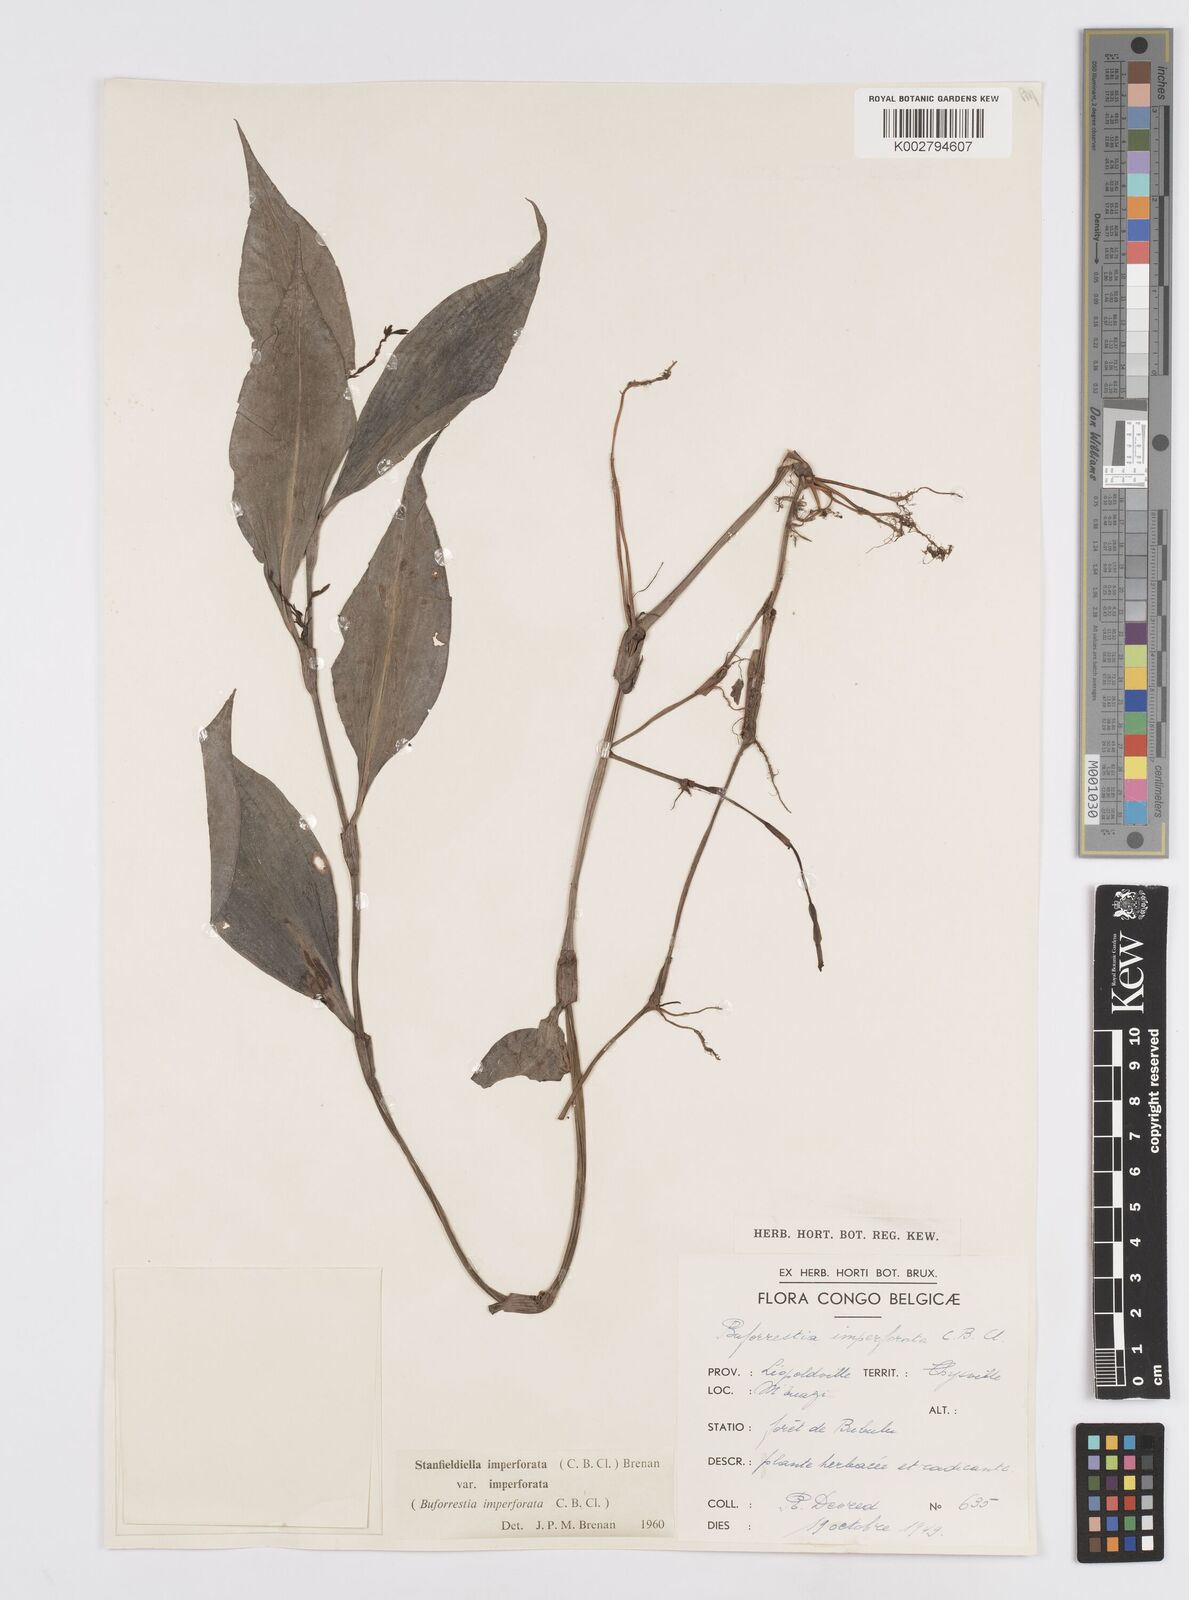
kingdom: Plantae
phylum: Tracheophyta
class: Liliopsida
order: Commelinales
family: Commelinaceae
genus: Stanfieldiella
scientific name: Stanfieldiella imperforata
